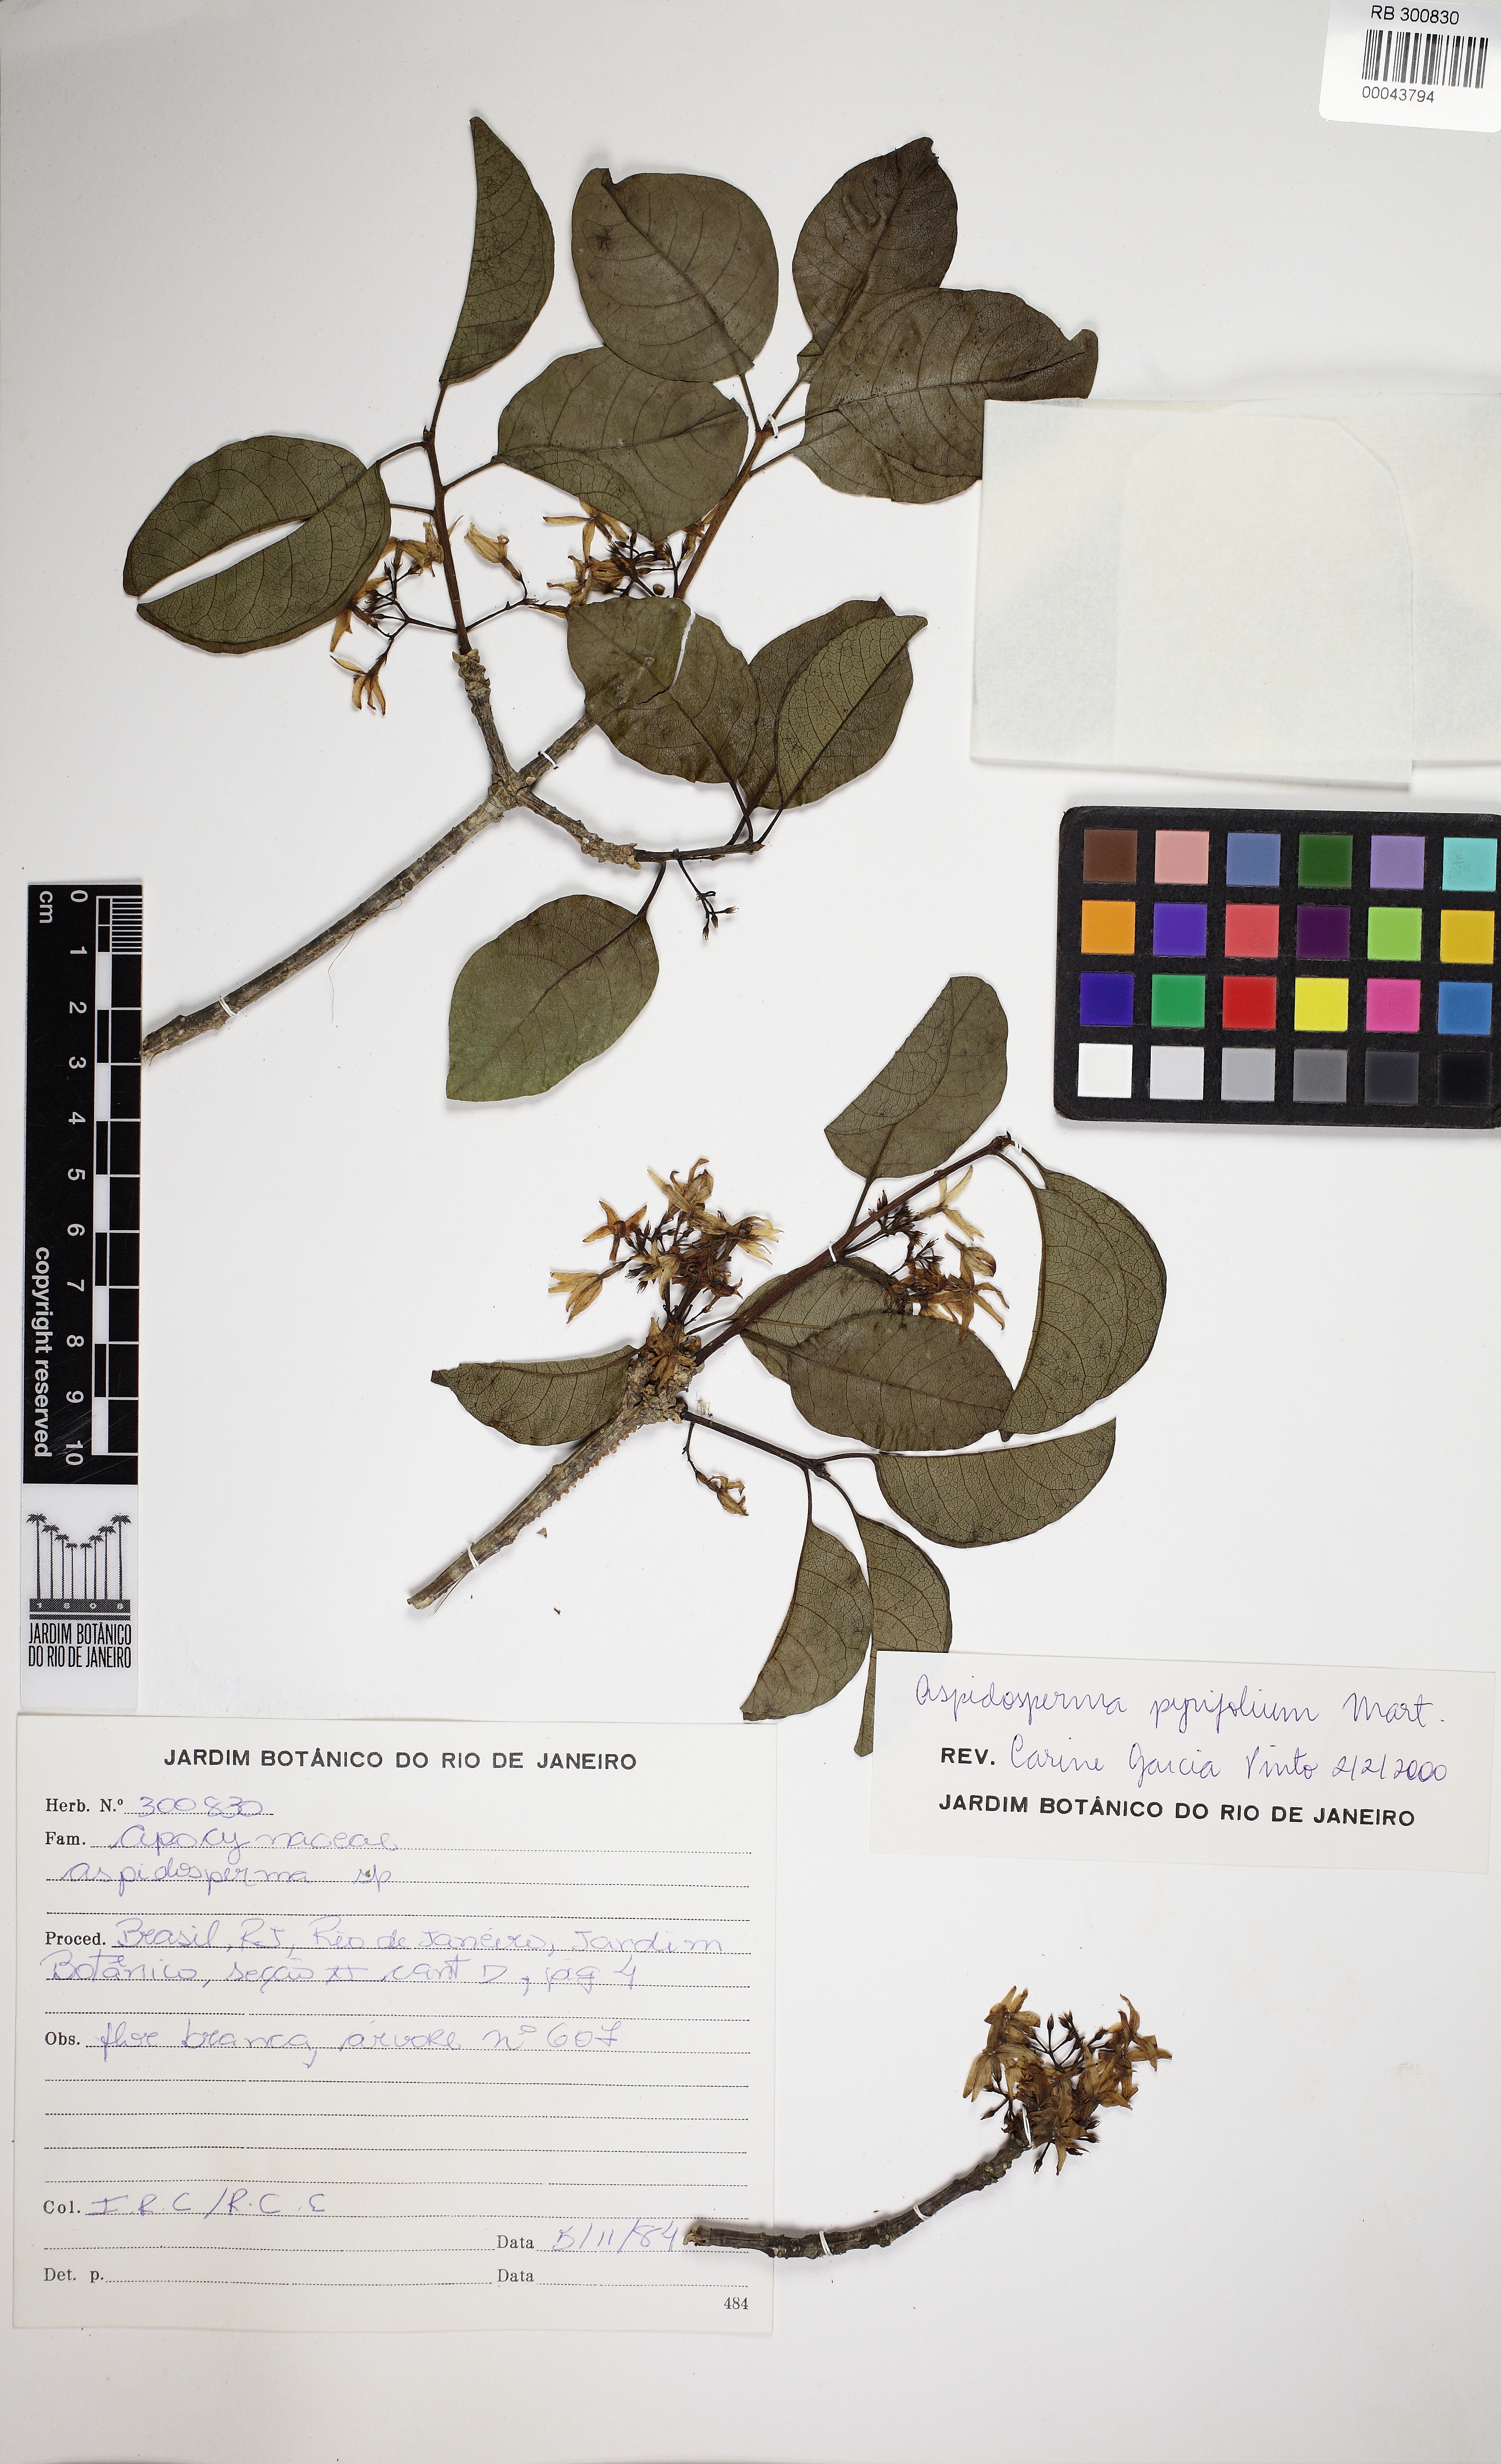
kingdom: Plantae
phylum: Tracheophyta
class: Magnoliopsida
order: Gentianales
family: Apocynaceae
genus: Aspidosperma
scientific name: Aspidosperma pyrifolium
